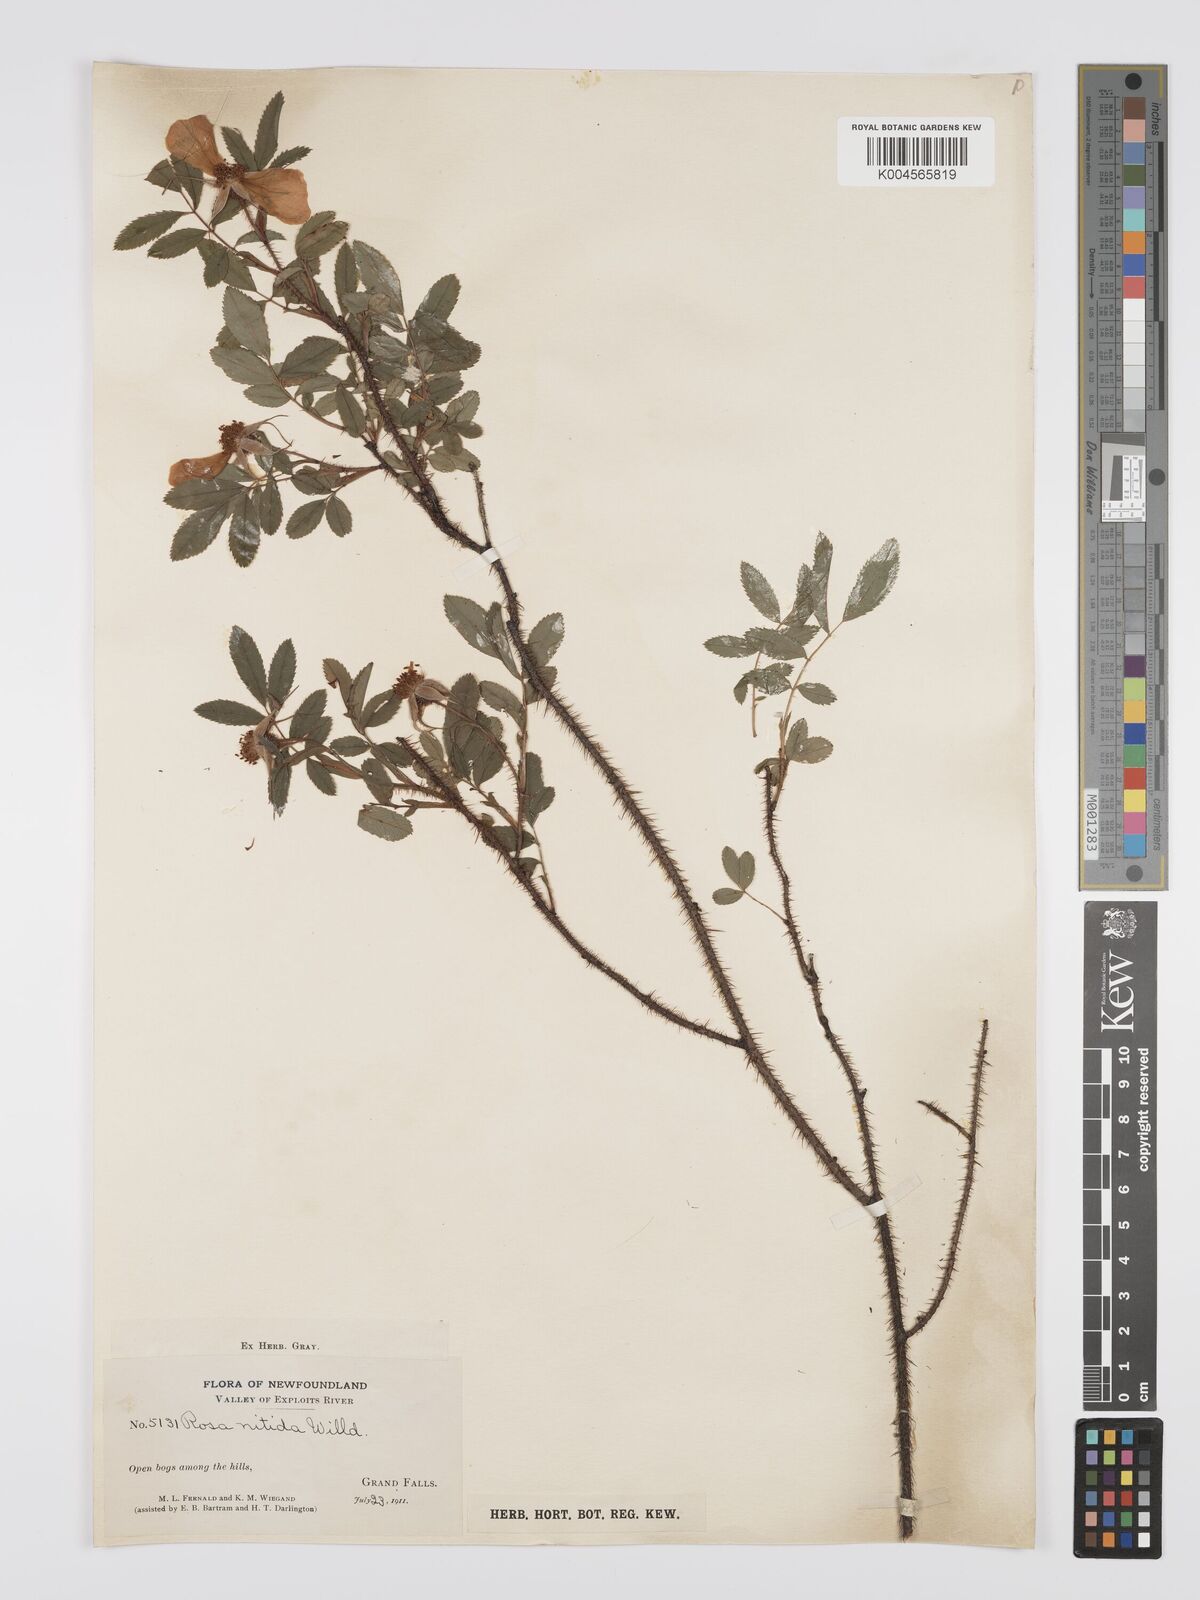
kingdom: Plantae
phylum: Tracheophyta
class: Magnoliopsida
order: Rosales
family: Rosaceae
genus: Rosa
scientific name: Rosa nitida
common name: New england rose
